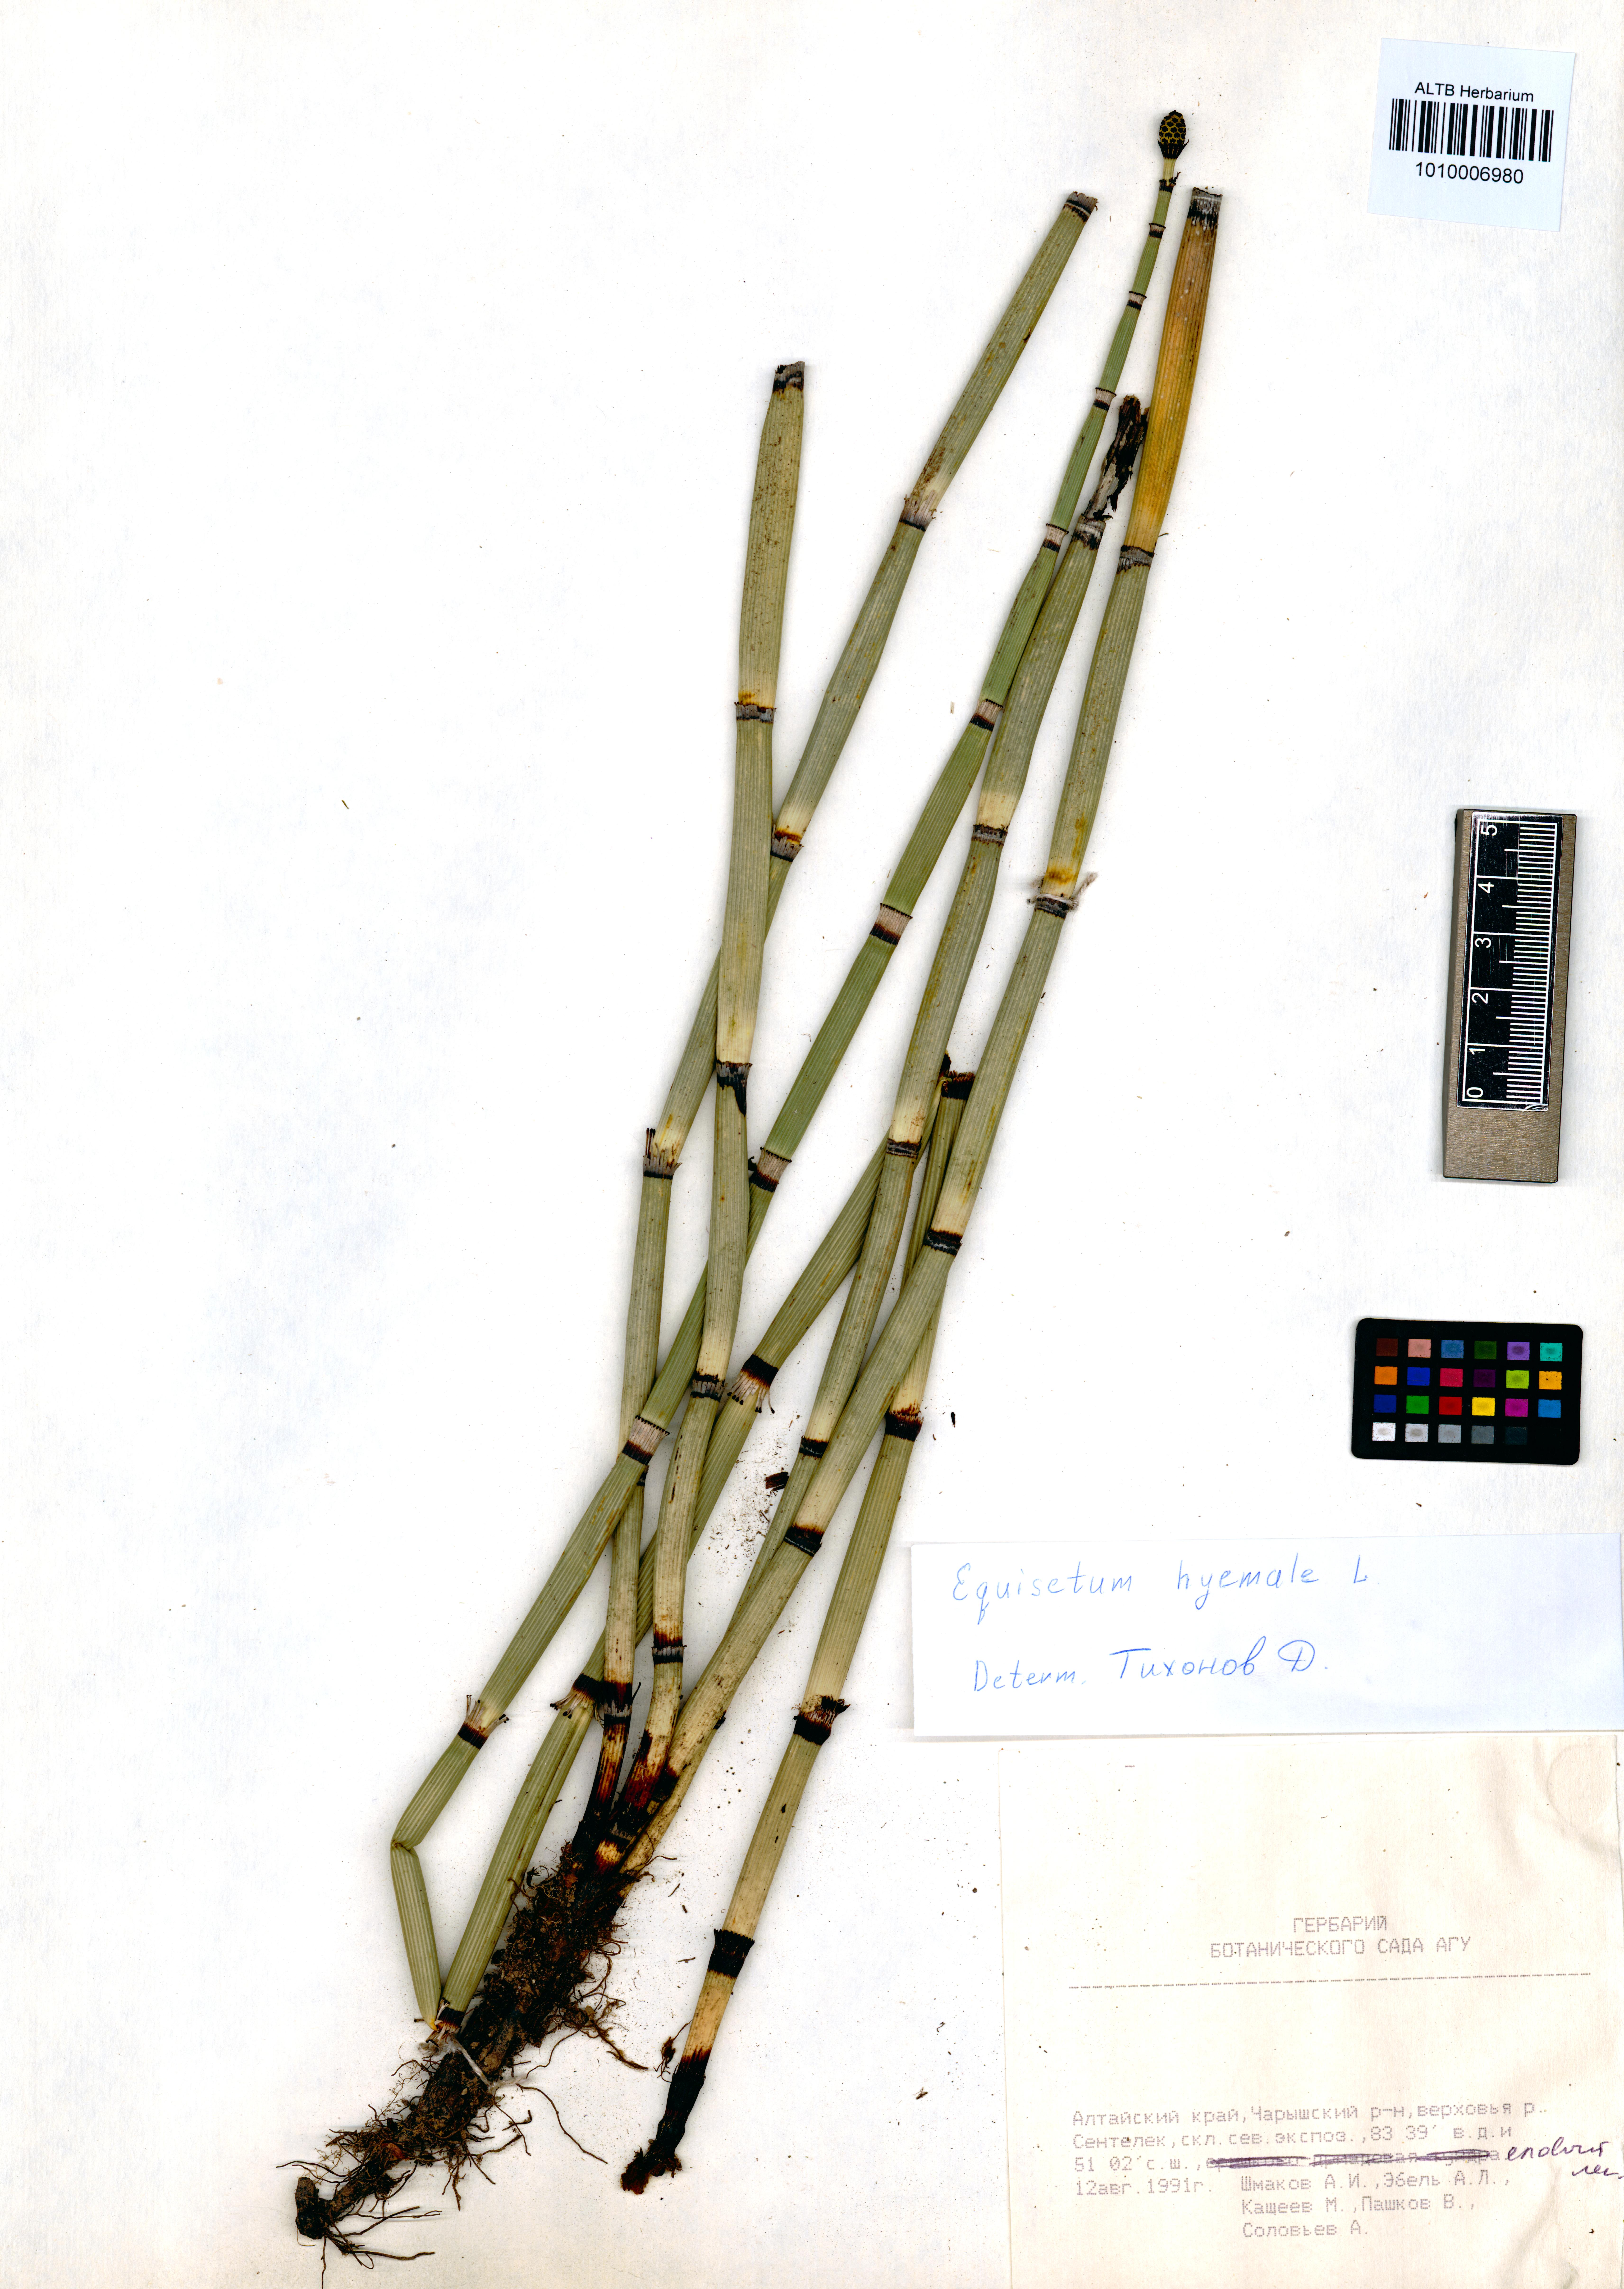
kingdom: Plantae
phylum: Tracheophyta
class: Polypodiopsida
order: Equisetales
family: Equisetaceae
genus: Equisetum
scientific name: Equisetum hyemale
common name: Rough horsetail
